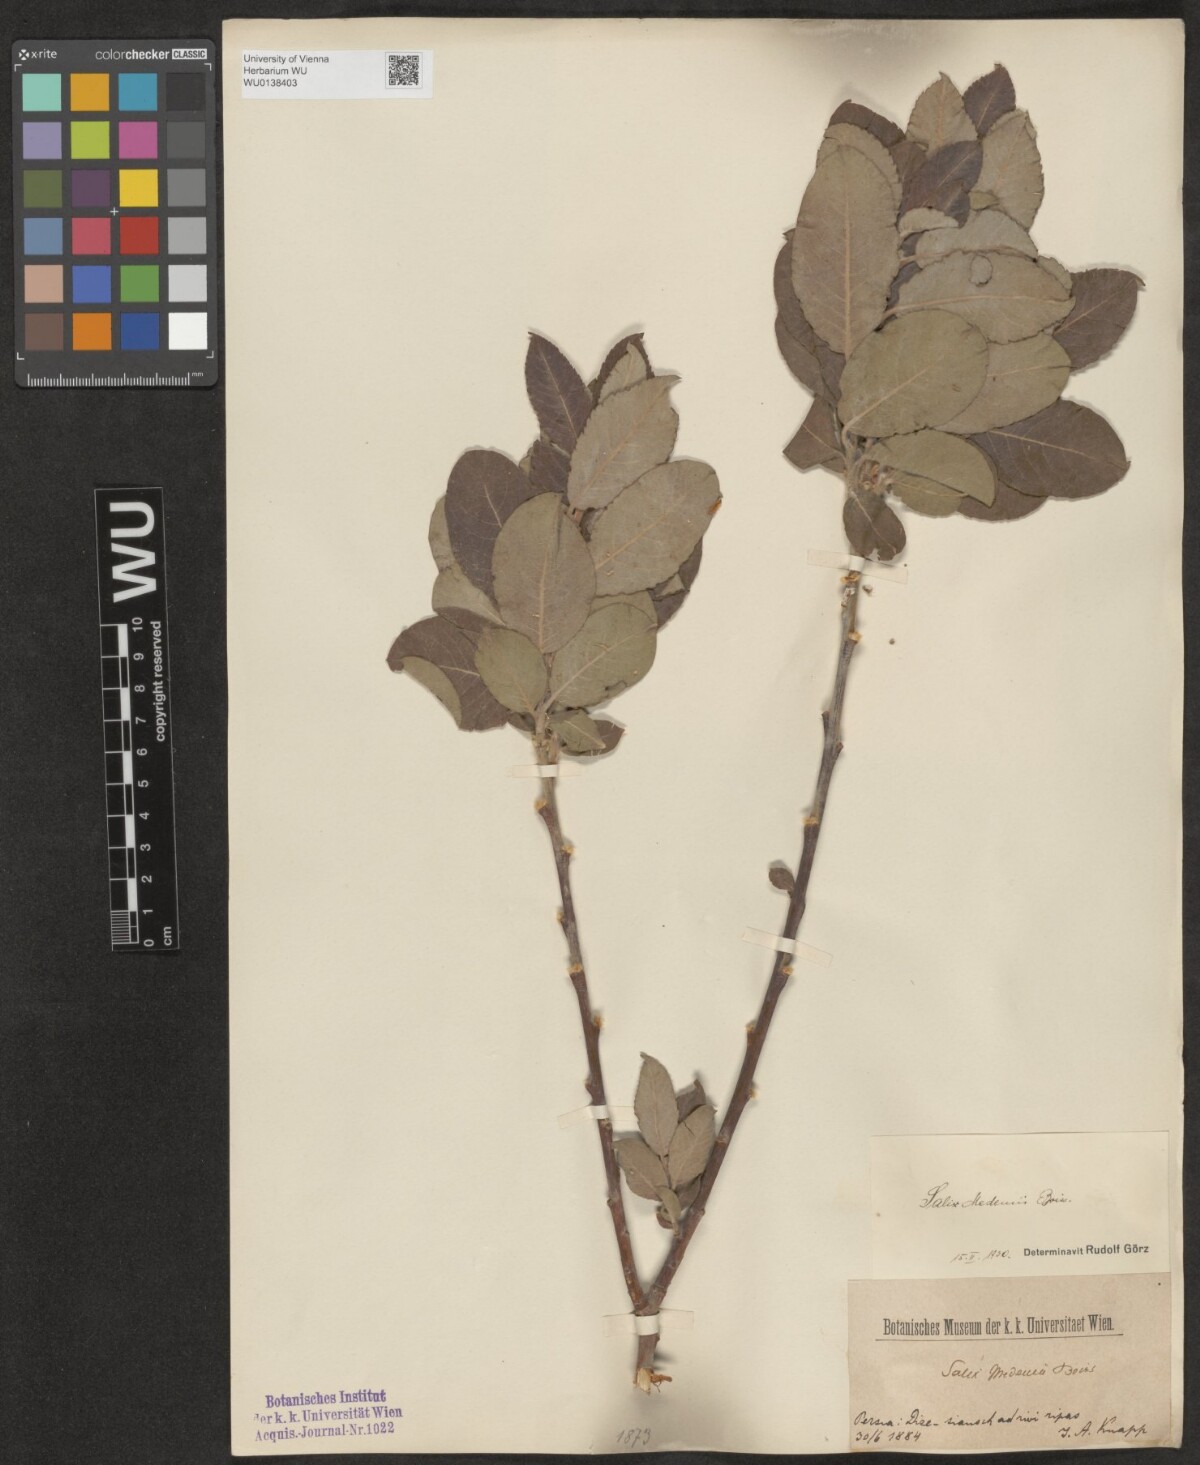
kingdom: Plantae
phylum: Tracheophyta
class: Magnoliopsida
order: Malpighiales
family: Salicaceae
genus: Salix
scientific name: Salix aegyptiaca
